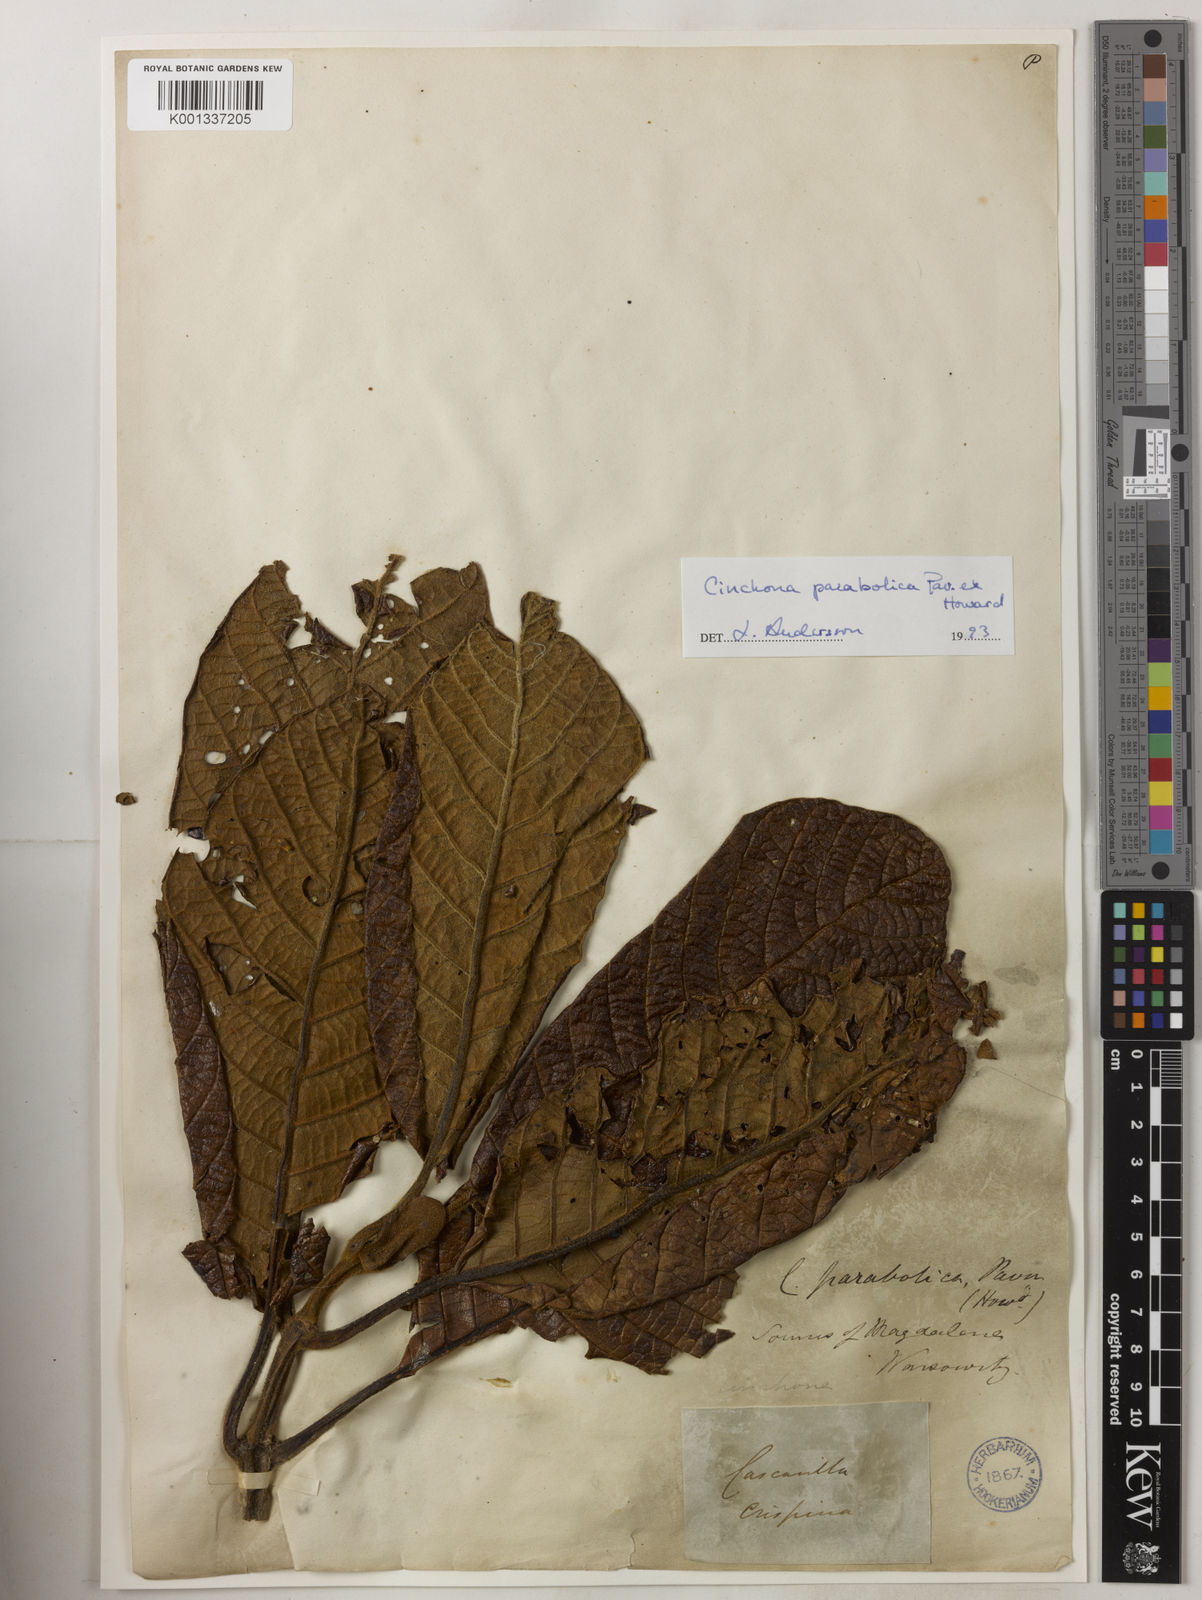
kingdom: Plantae
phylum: Tracheophyta
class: Magnoliopsida
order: Gentianales
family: Rubiaceae
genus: Cinchona
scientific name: Cinchona parabolica
